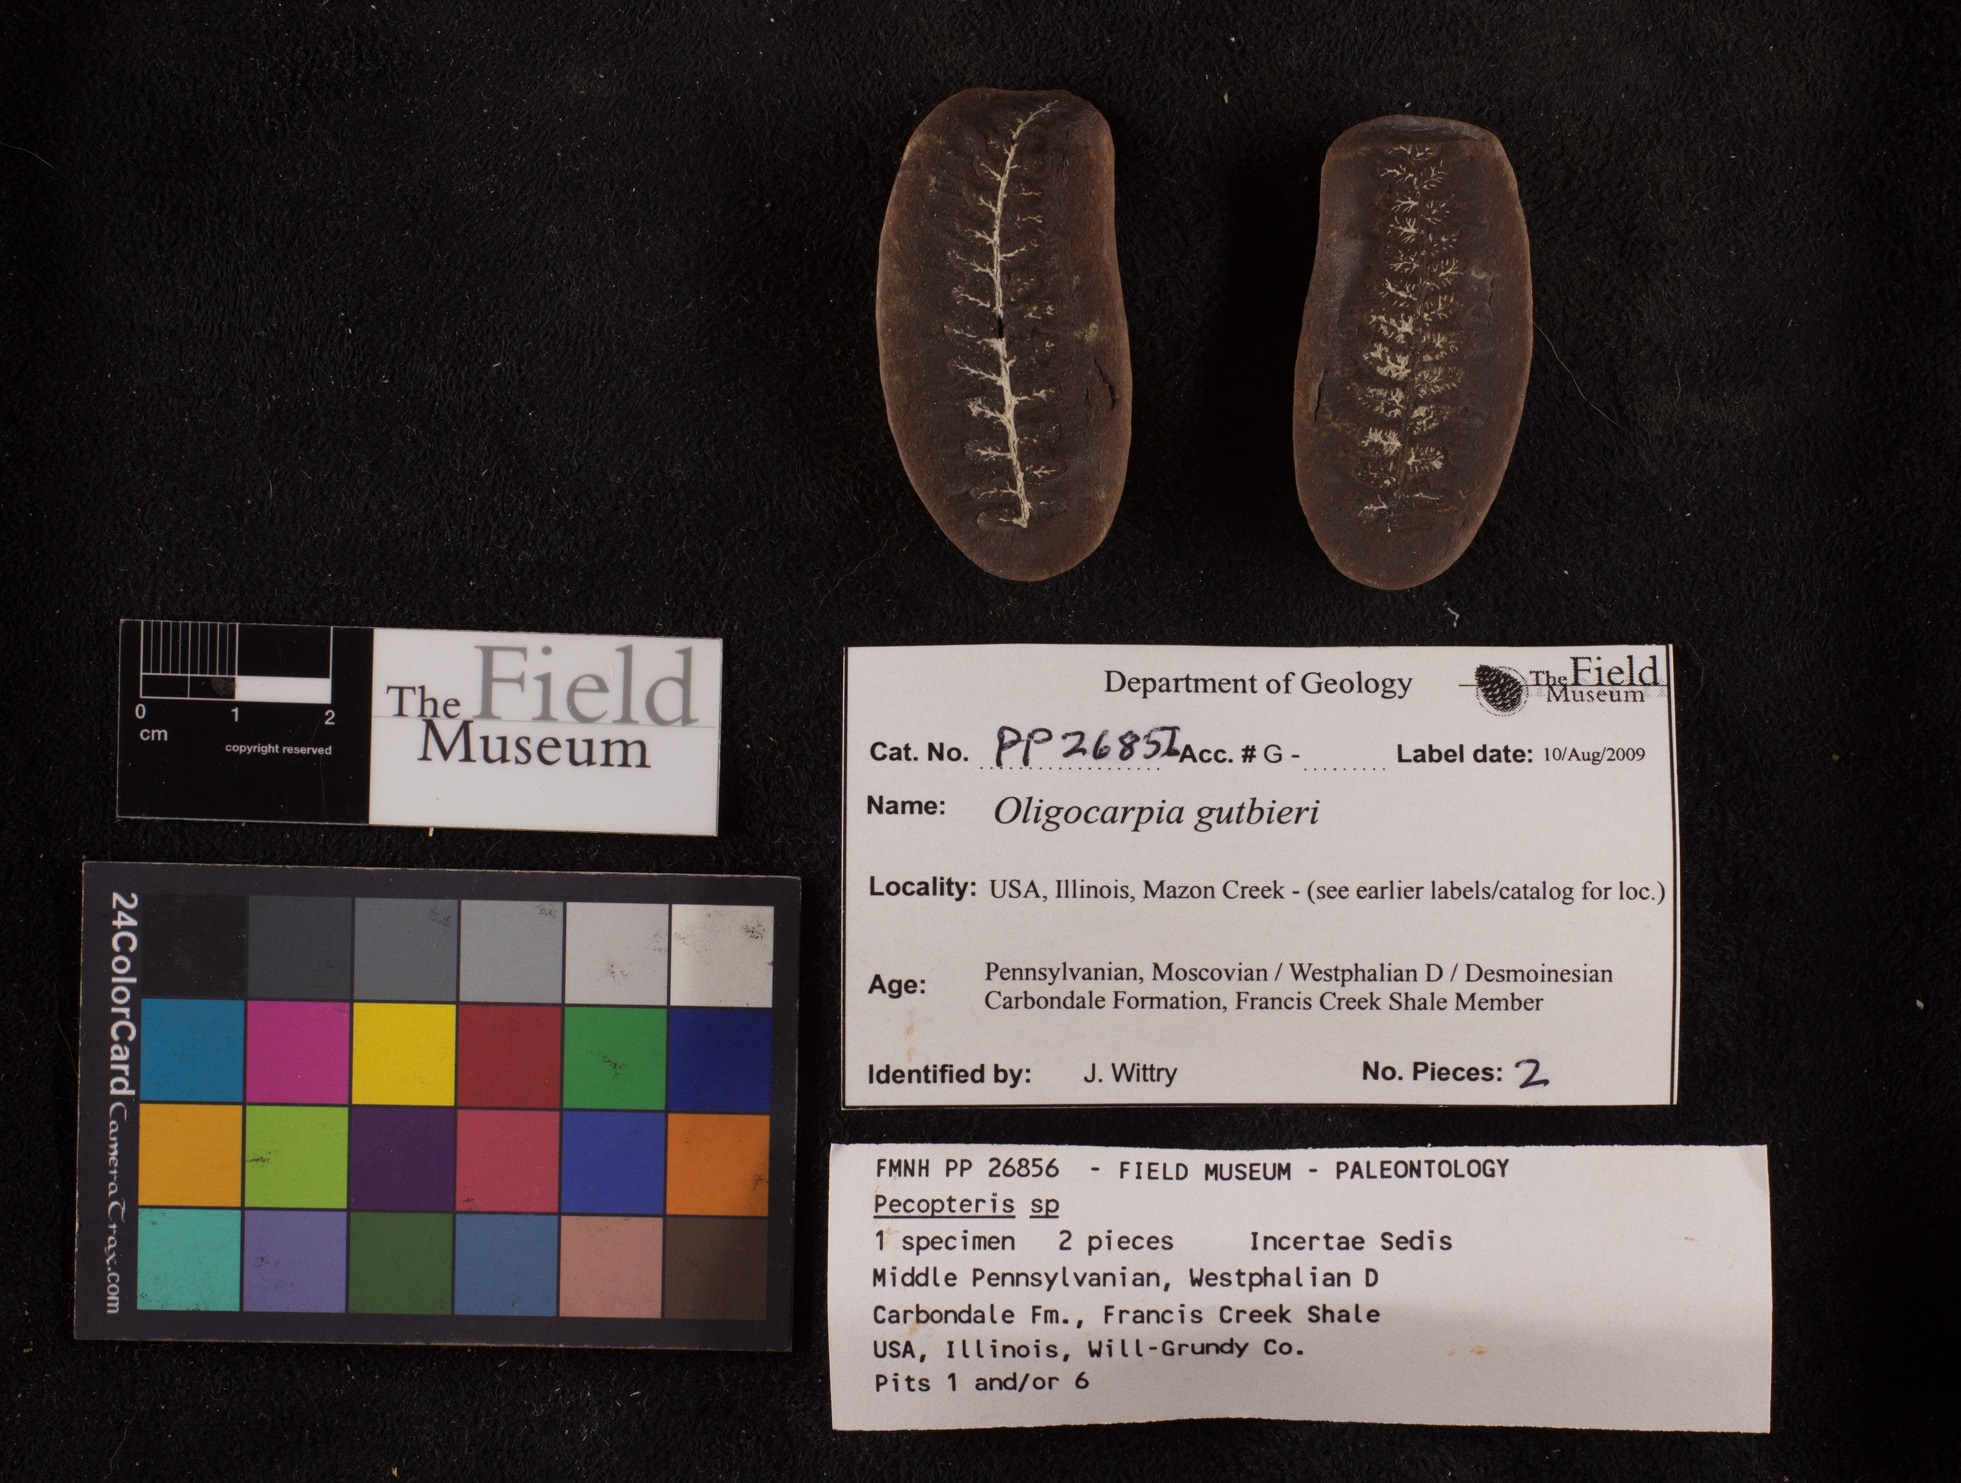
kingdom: Plantae
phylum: Tracheophyta
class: Polypodiopsida
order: Gleicheniales
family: Gleicheniaceae
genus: Oligocarpia
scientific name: Oligocarpia gutbieri
